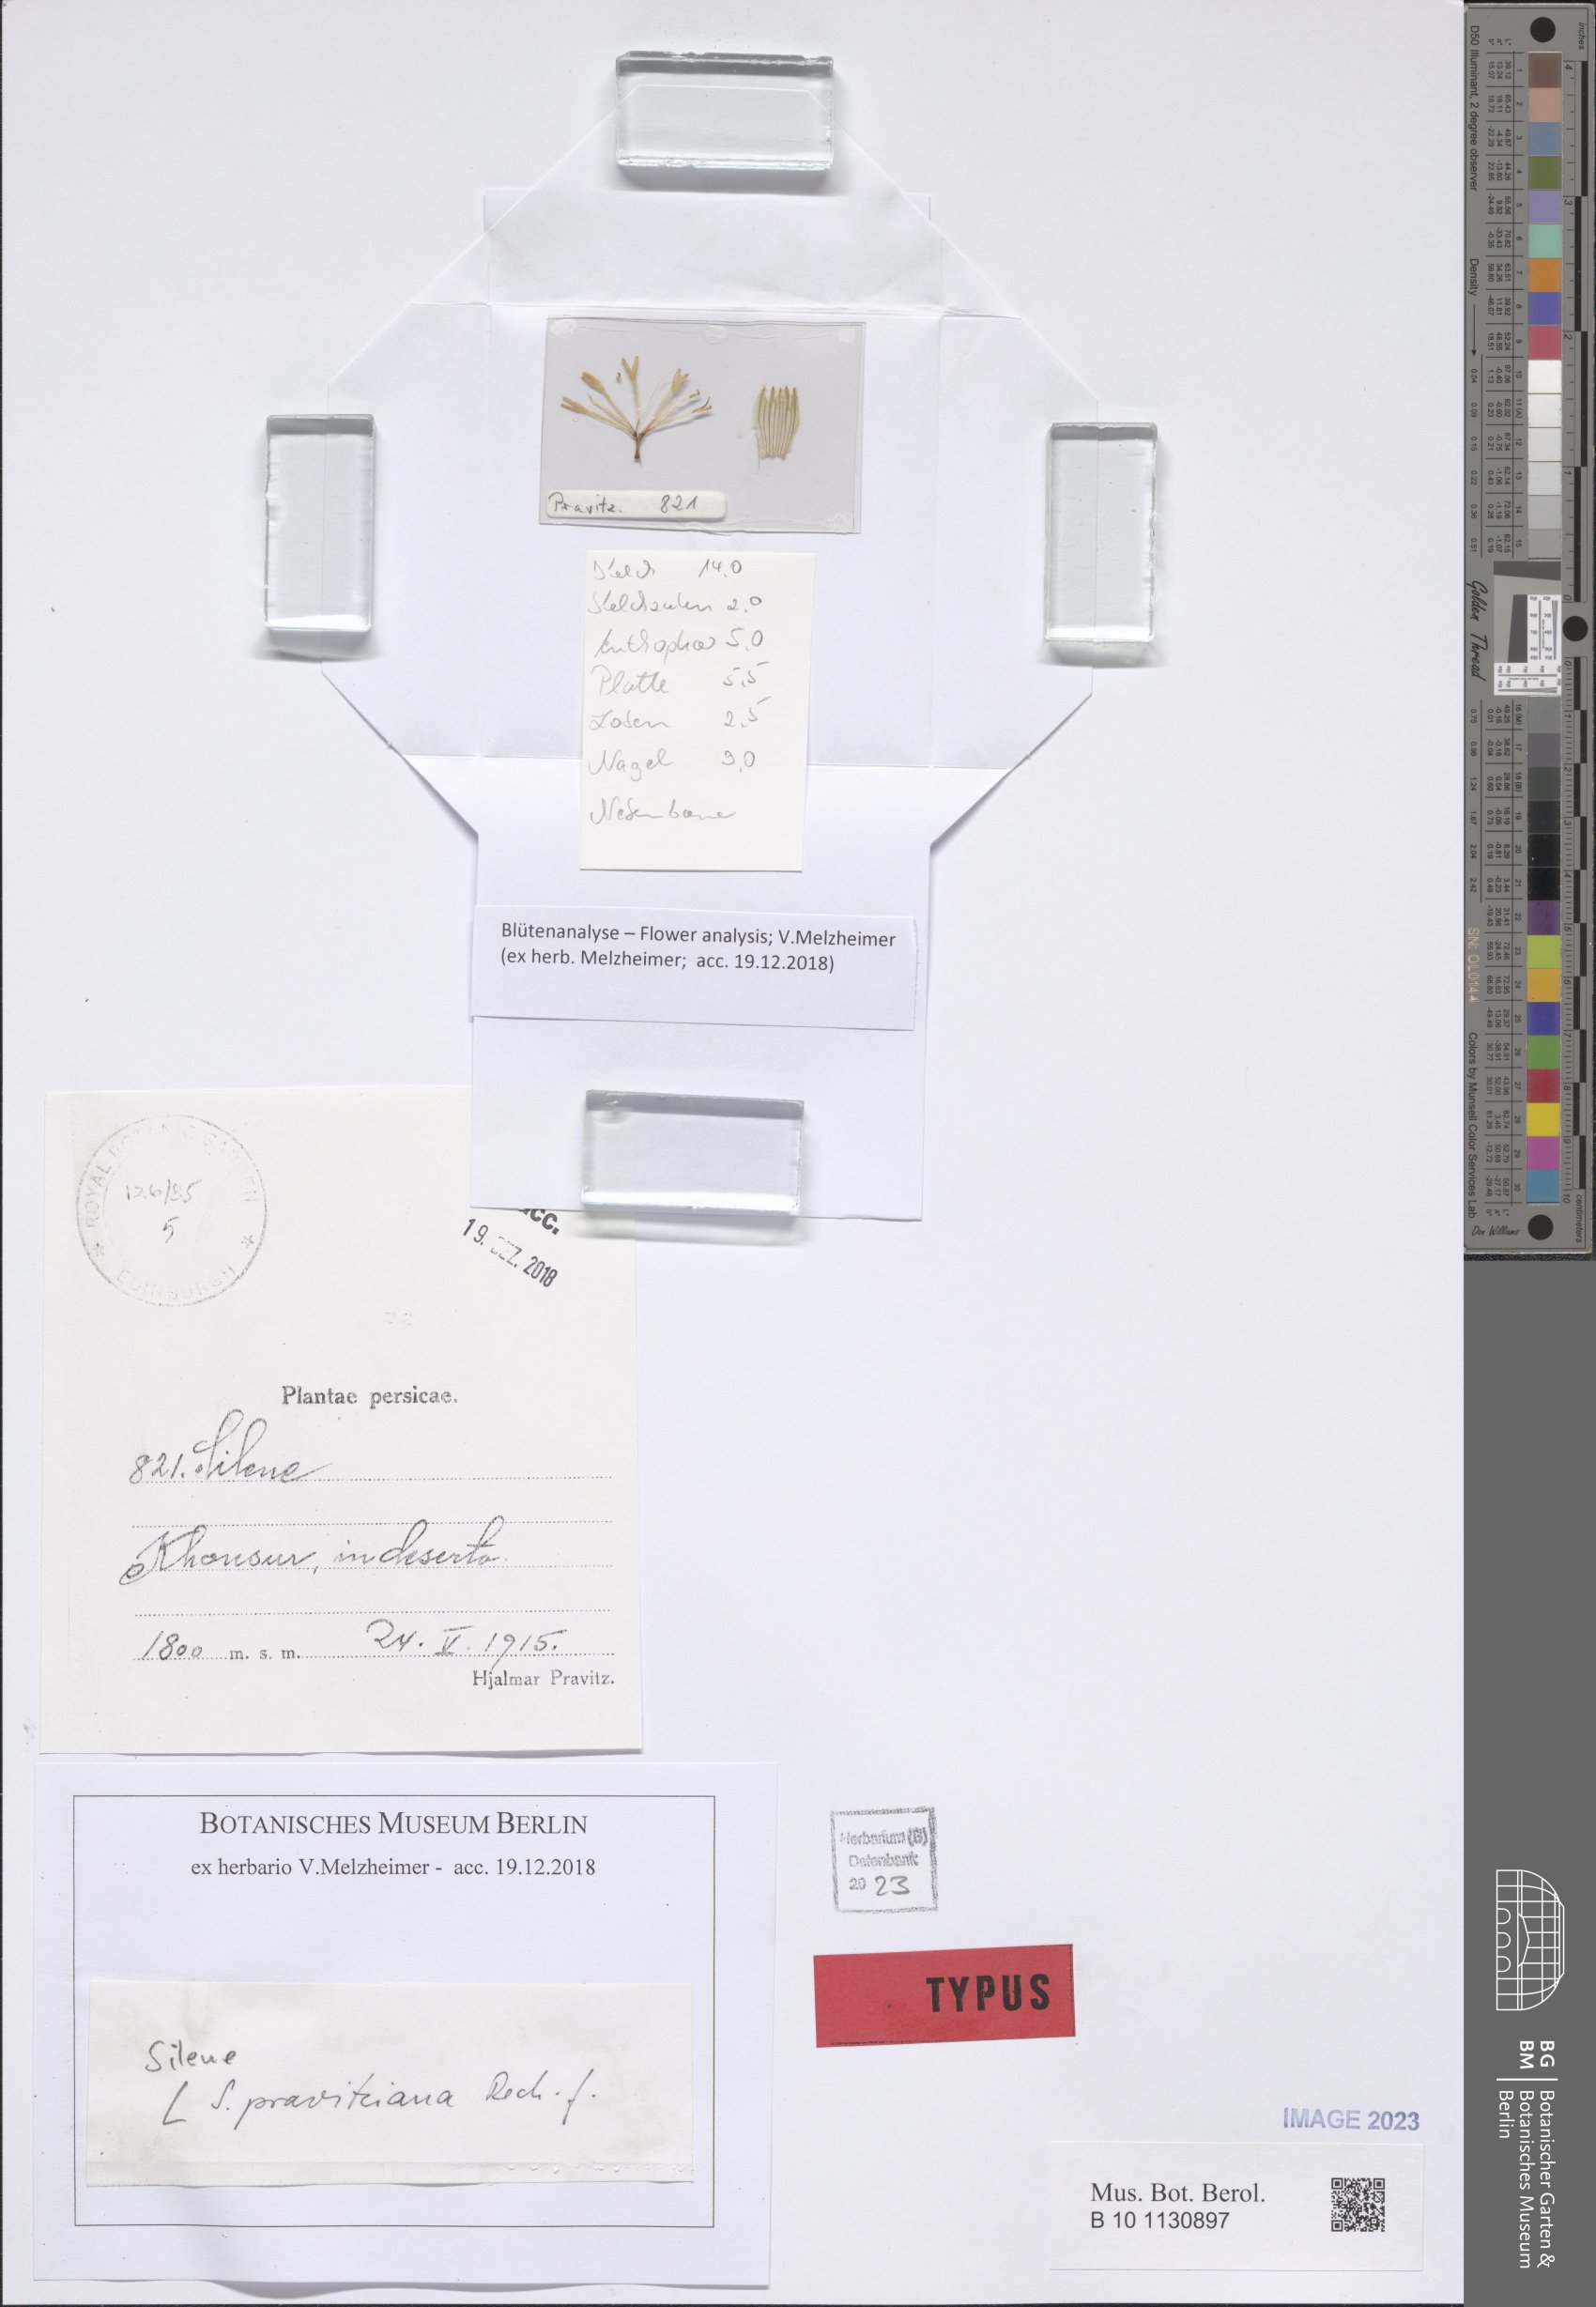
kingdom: Plantae
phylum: Tracheophyta
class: Magnoliopsida
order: Caryophyllales
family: Caryophyllaceae
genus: Silene
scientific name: Silene pravitziana
